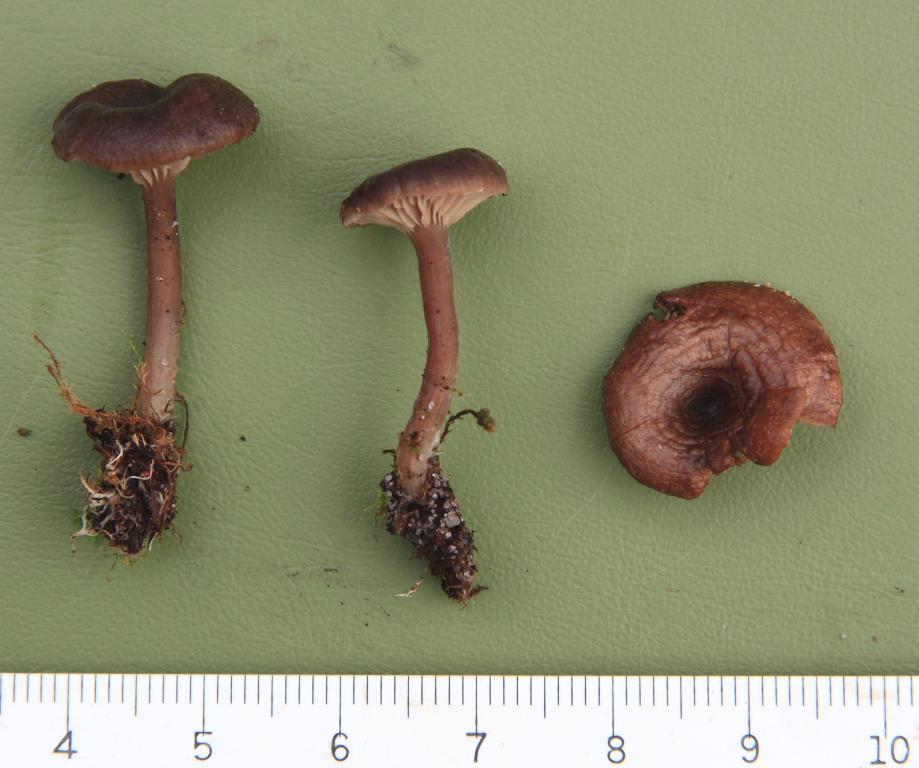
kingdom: Fungi
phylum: Basidiomycota
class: Agaricomycetes
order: Agaricales
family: Entolomataceae
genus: Clitopilus
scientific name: Clitopilus caelatus
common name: gråbrun troldhat
